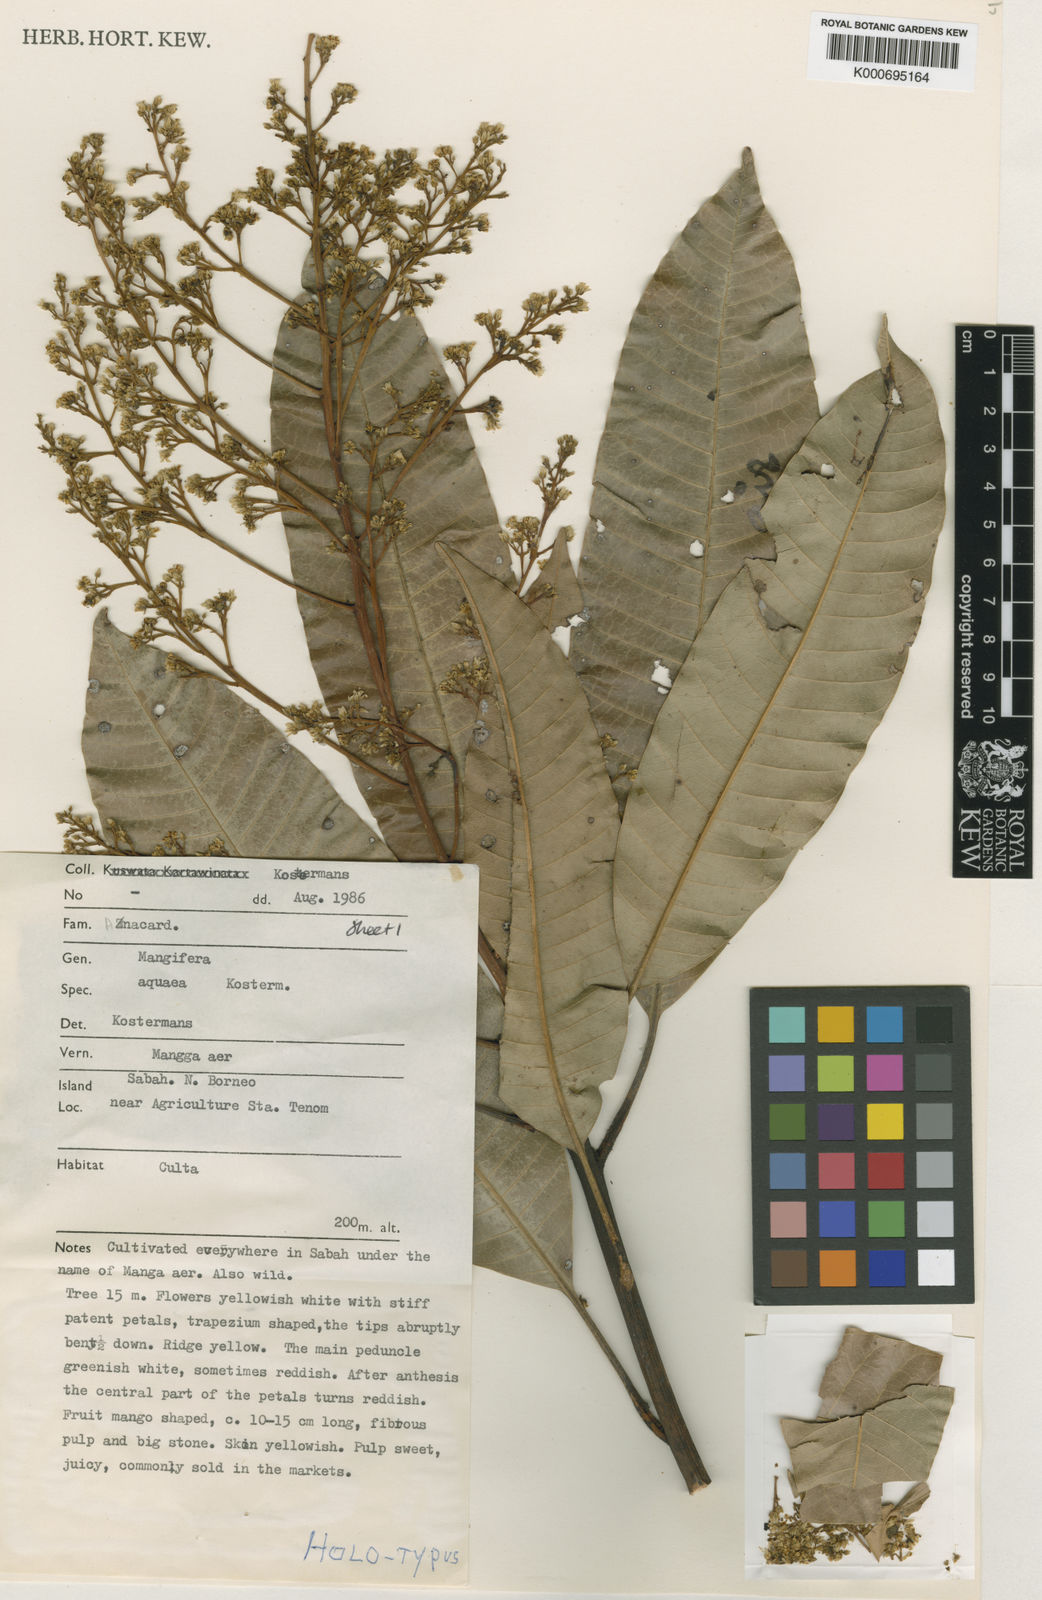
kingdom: Plantae
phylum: Tracheophyta
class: Magnoliopsida
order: Sapindales
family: Anacardiaceae
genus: Mangifera
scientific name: Mangifera
